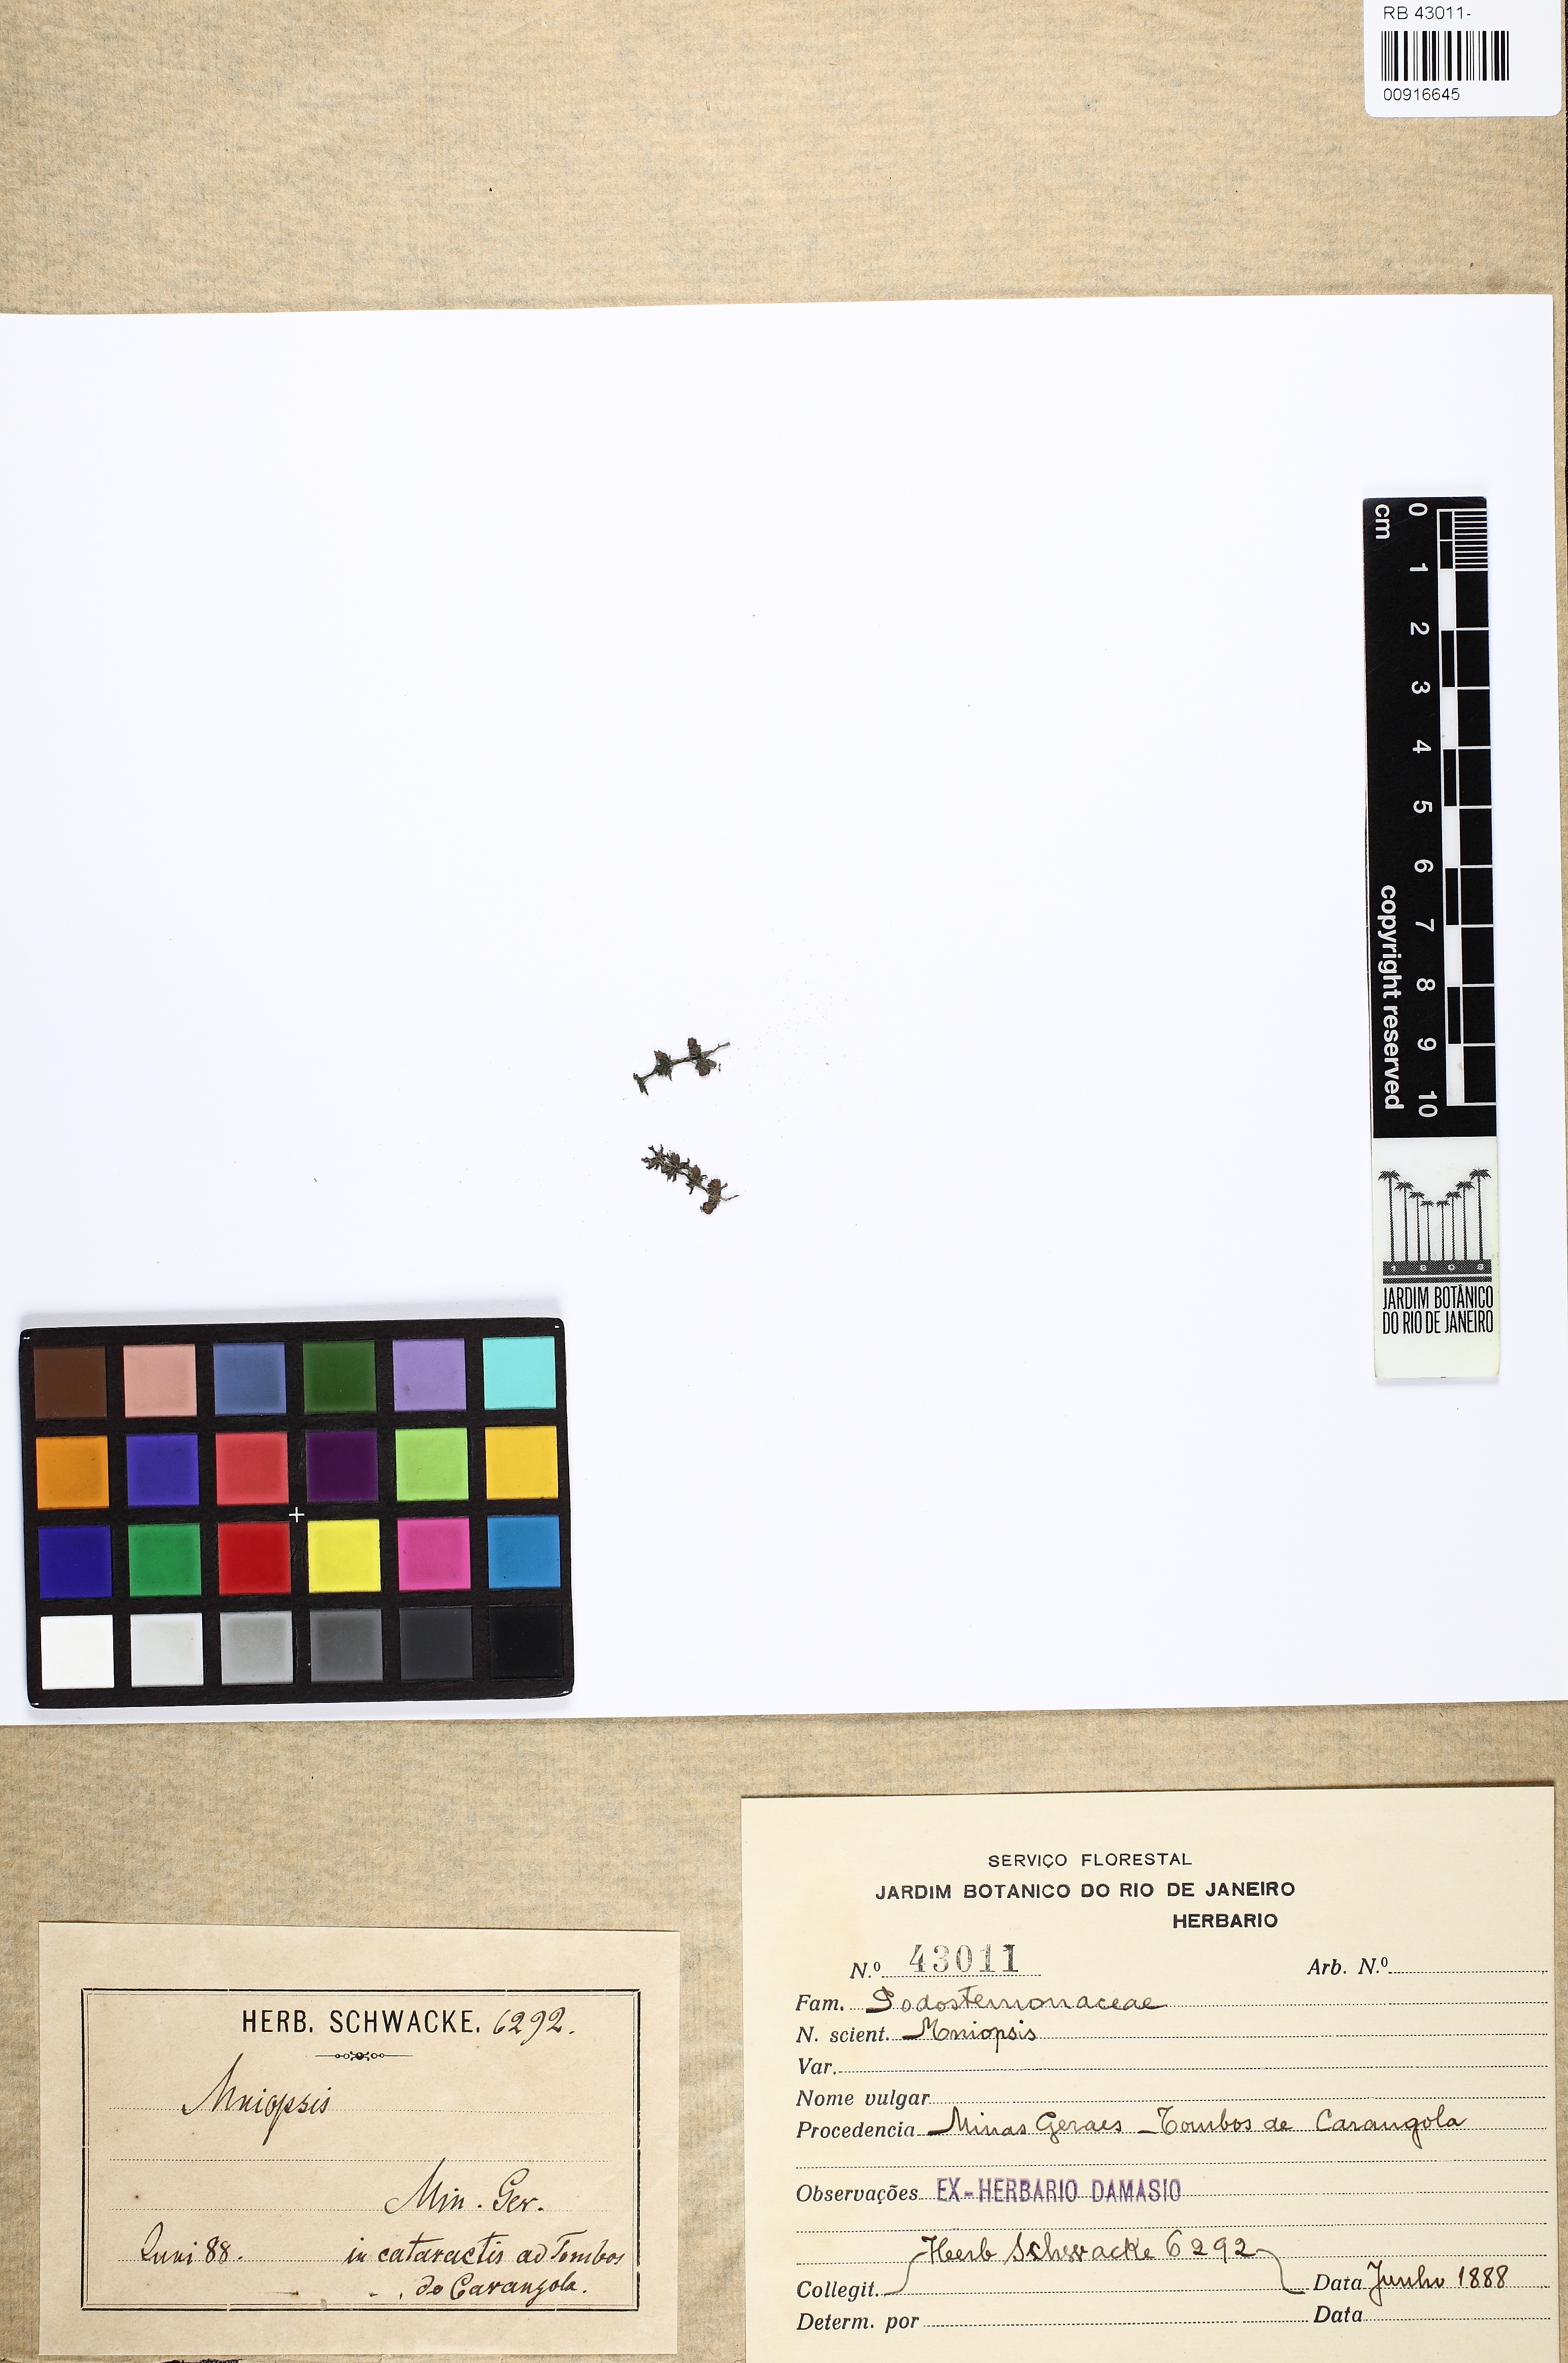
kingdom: Plantae
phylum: Tracheophyta
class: Magnoliopsida
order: Malpighiales
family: Podostemaceae
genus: Podostemum
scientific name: Podostemum
